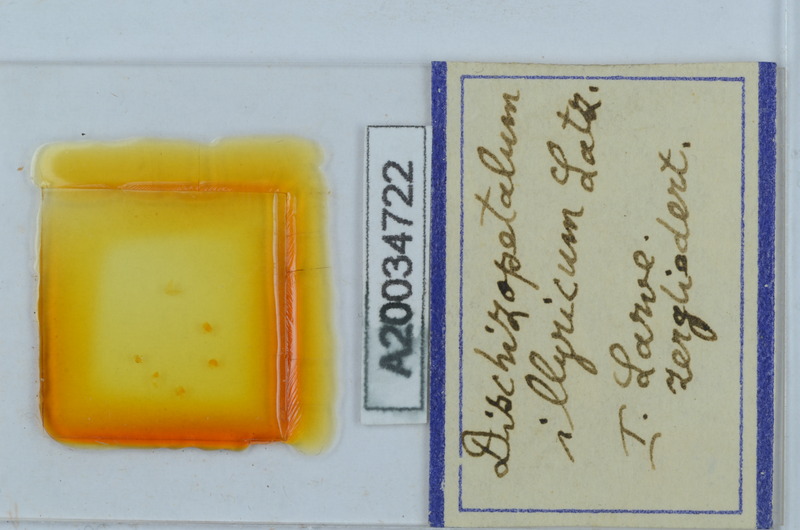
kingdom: Animalia
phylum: Arthropoda
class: Diplopoda
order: Callipodida
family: Schizopetalidae
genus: Dischizopetalum
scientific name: Dischizopetalum illyricum
